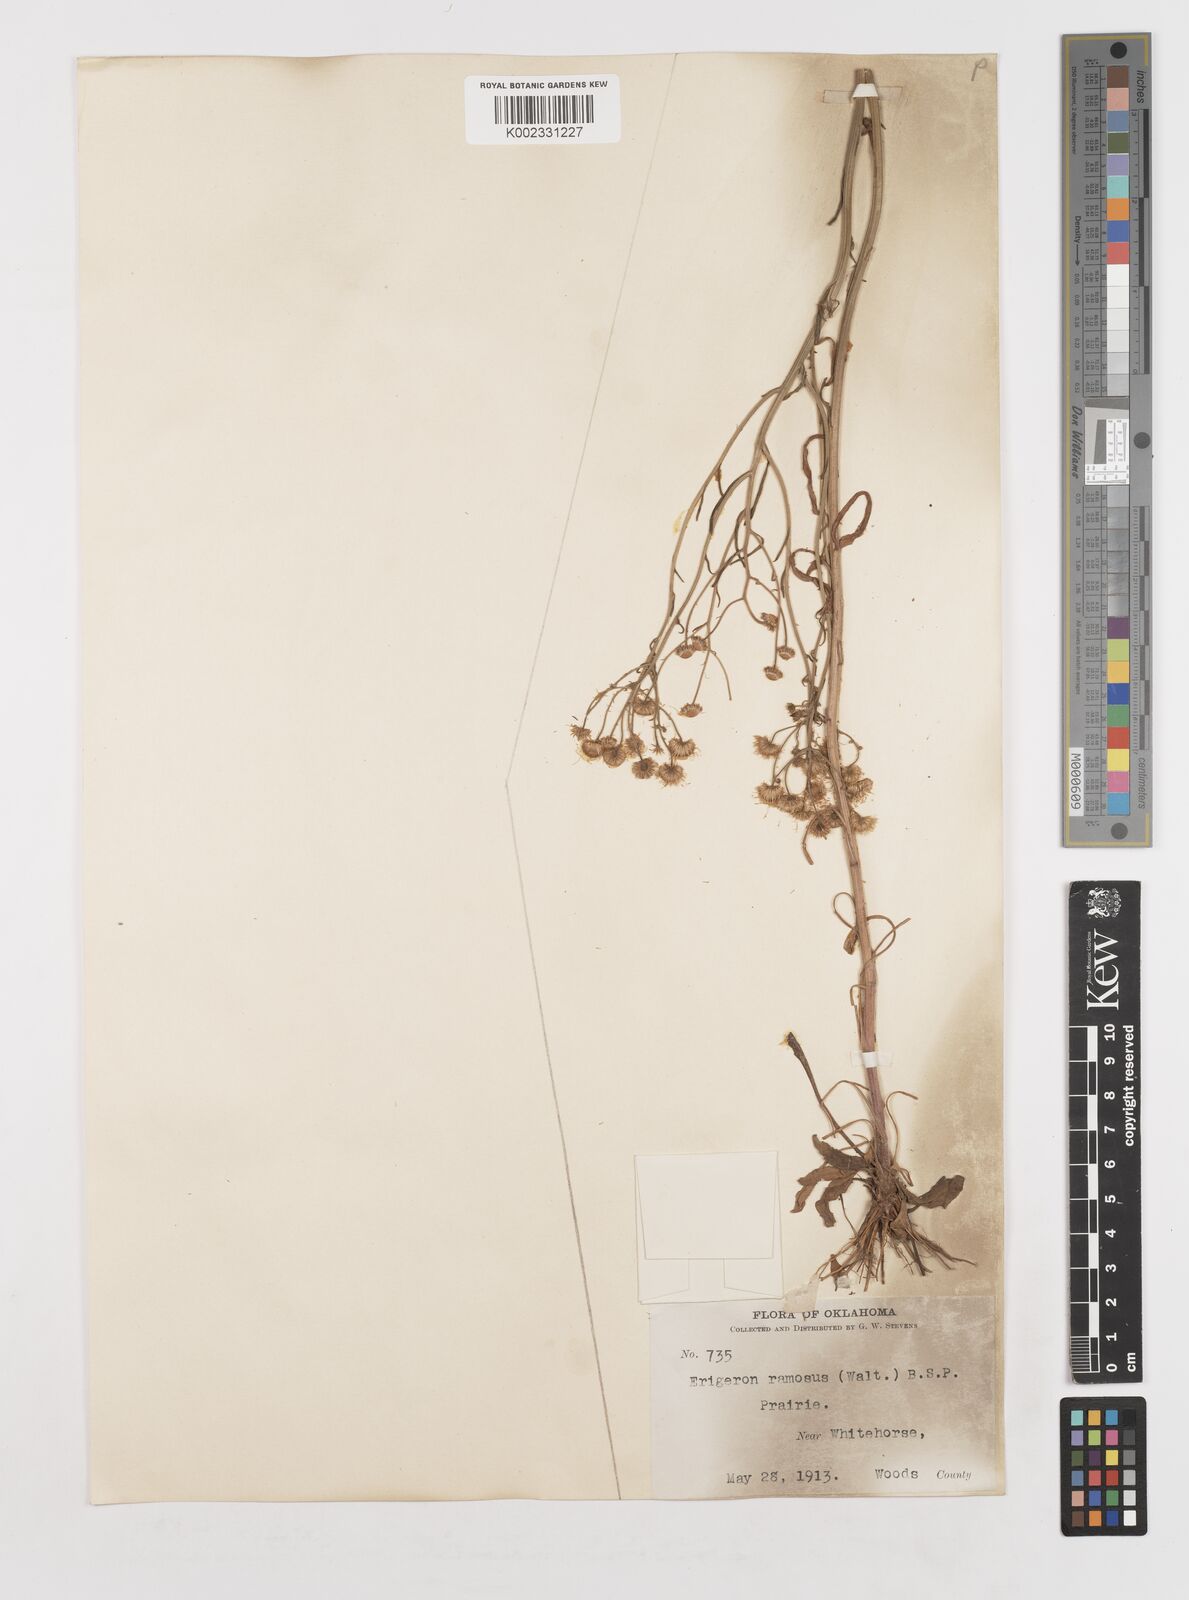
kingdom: Plantae
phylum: Tracheophyta
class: Magnoliopsida
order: Asterales
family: Asteraceae
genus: Erigeron
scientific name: Erigeron strigosus
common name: Common eastern fleabane
